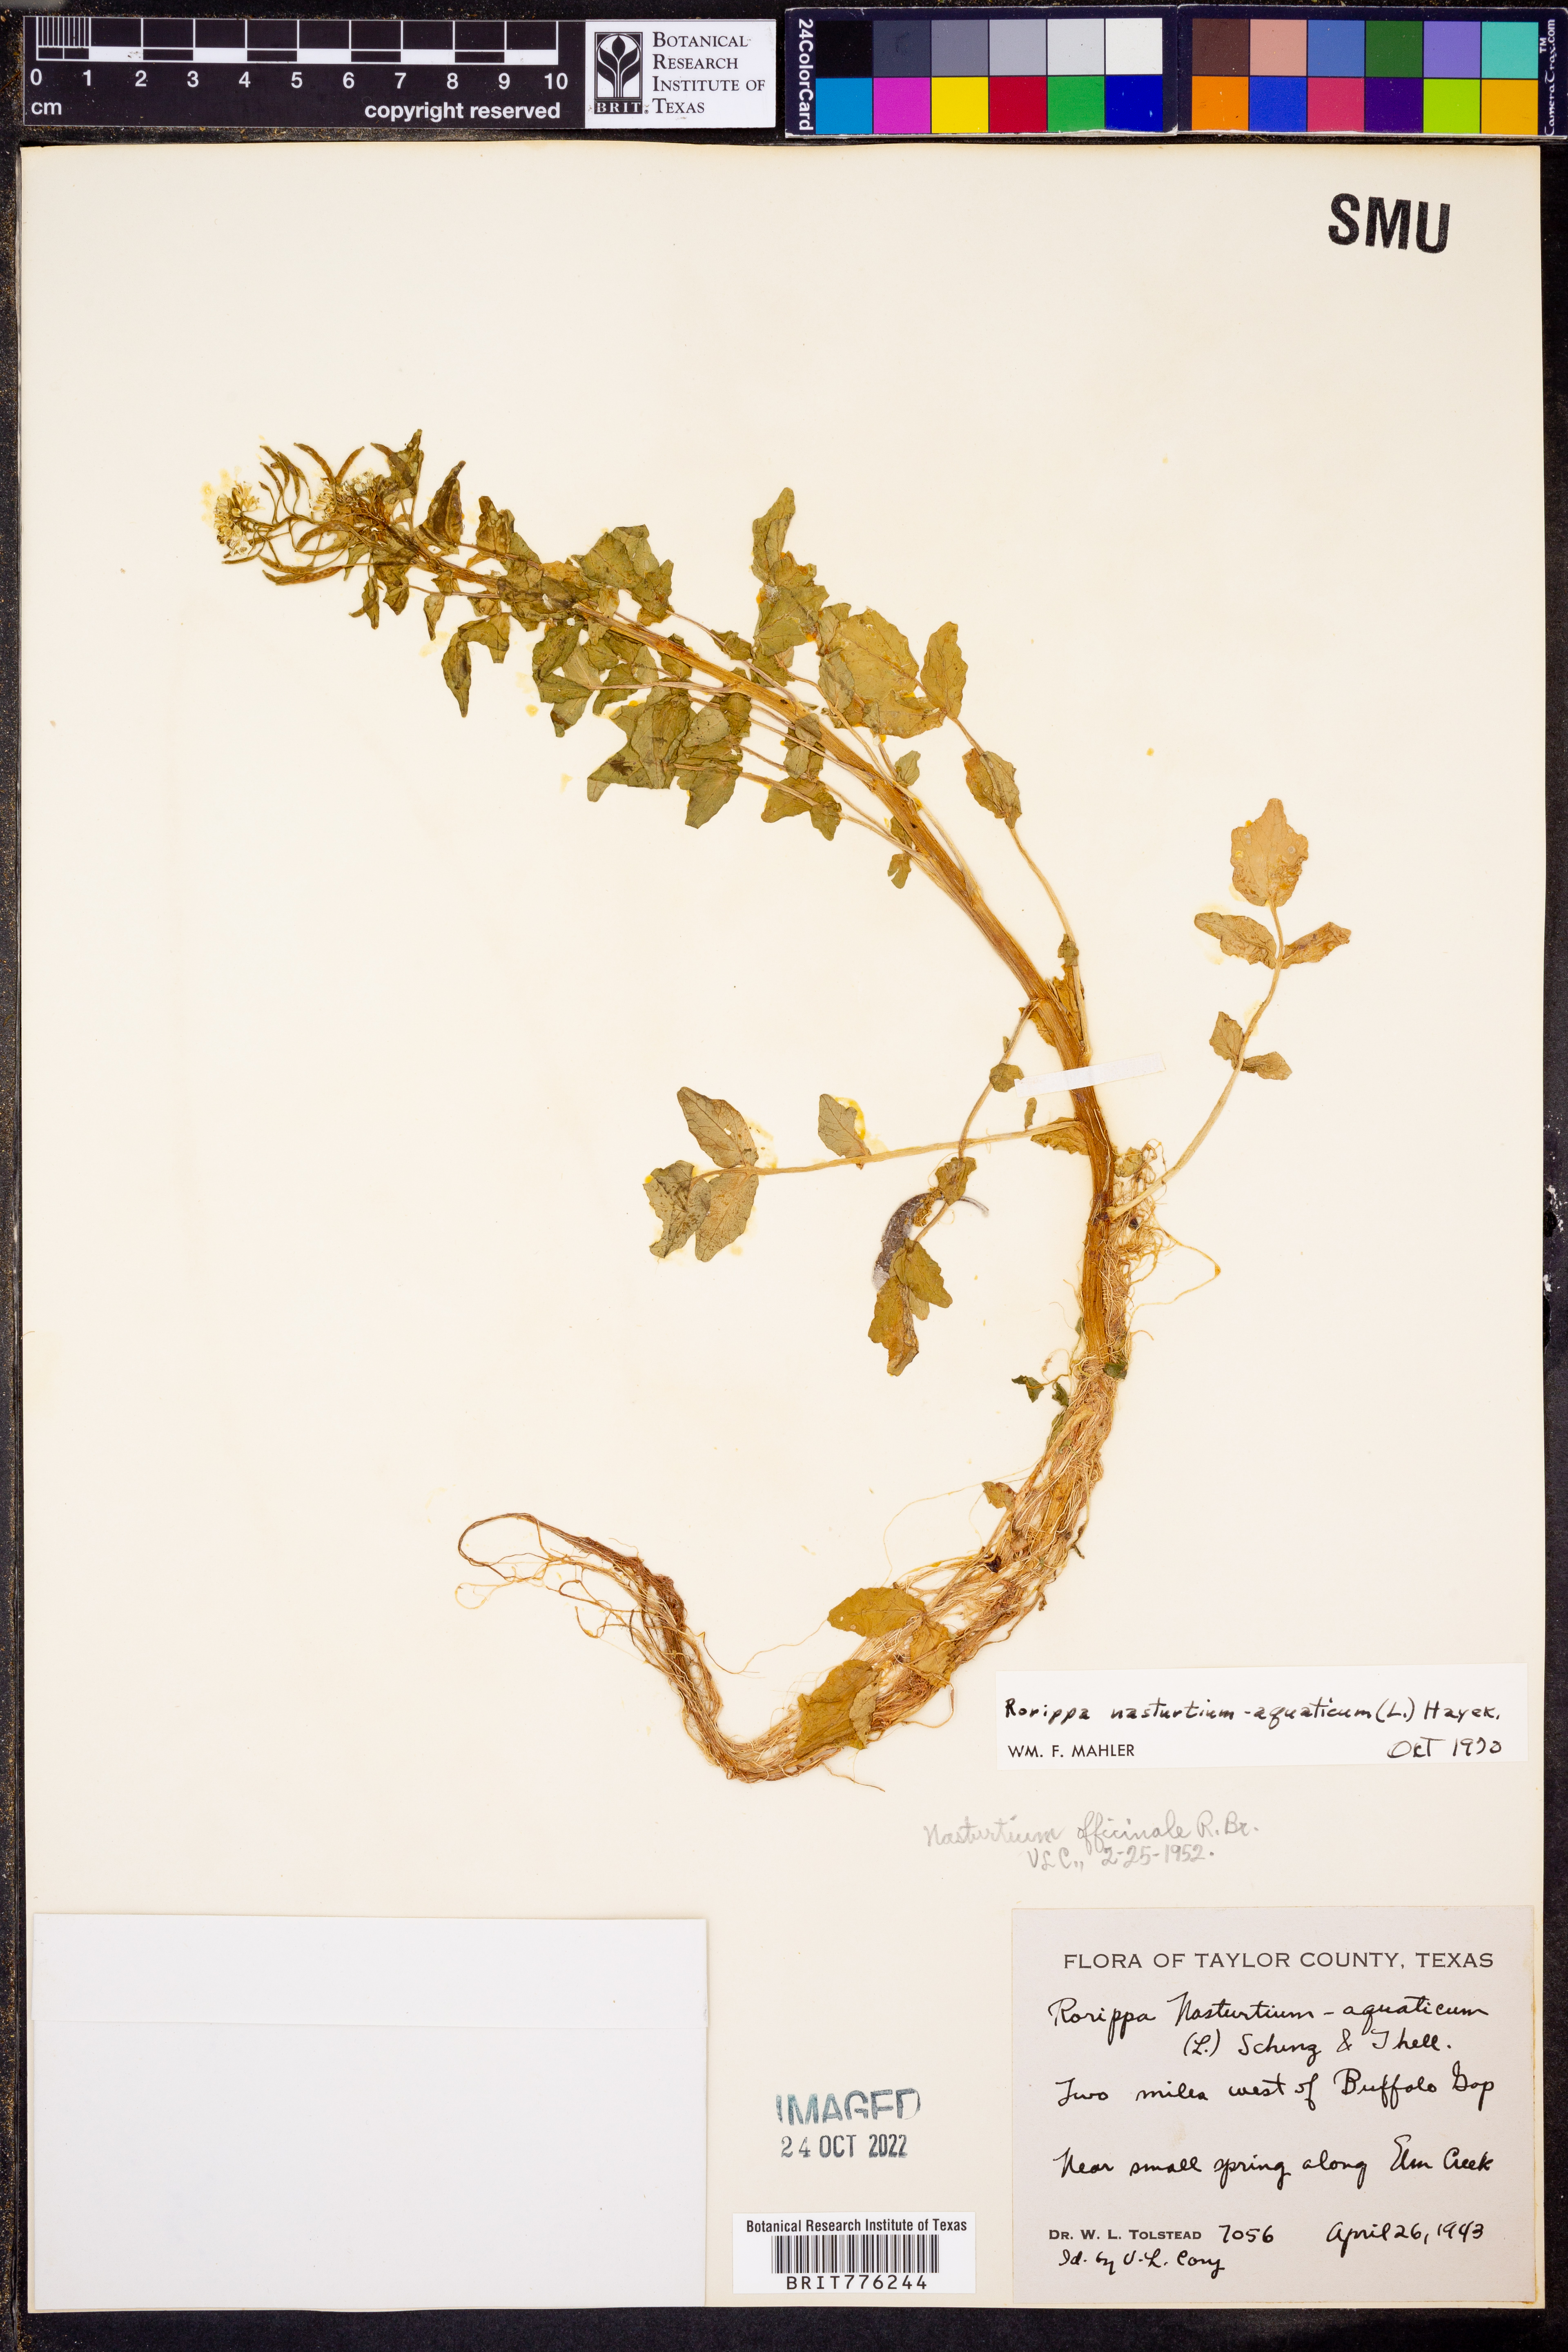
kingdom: Plantae
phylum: Tracheophyta
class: Magnoliopsida
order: Brassicales
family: Brassicaceae
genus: Nasturtium
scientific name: Nasturtium officinale
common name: Watercress
